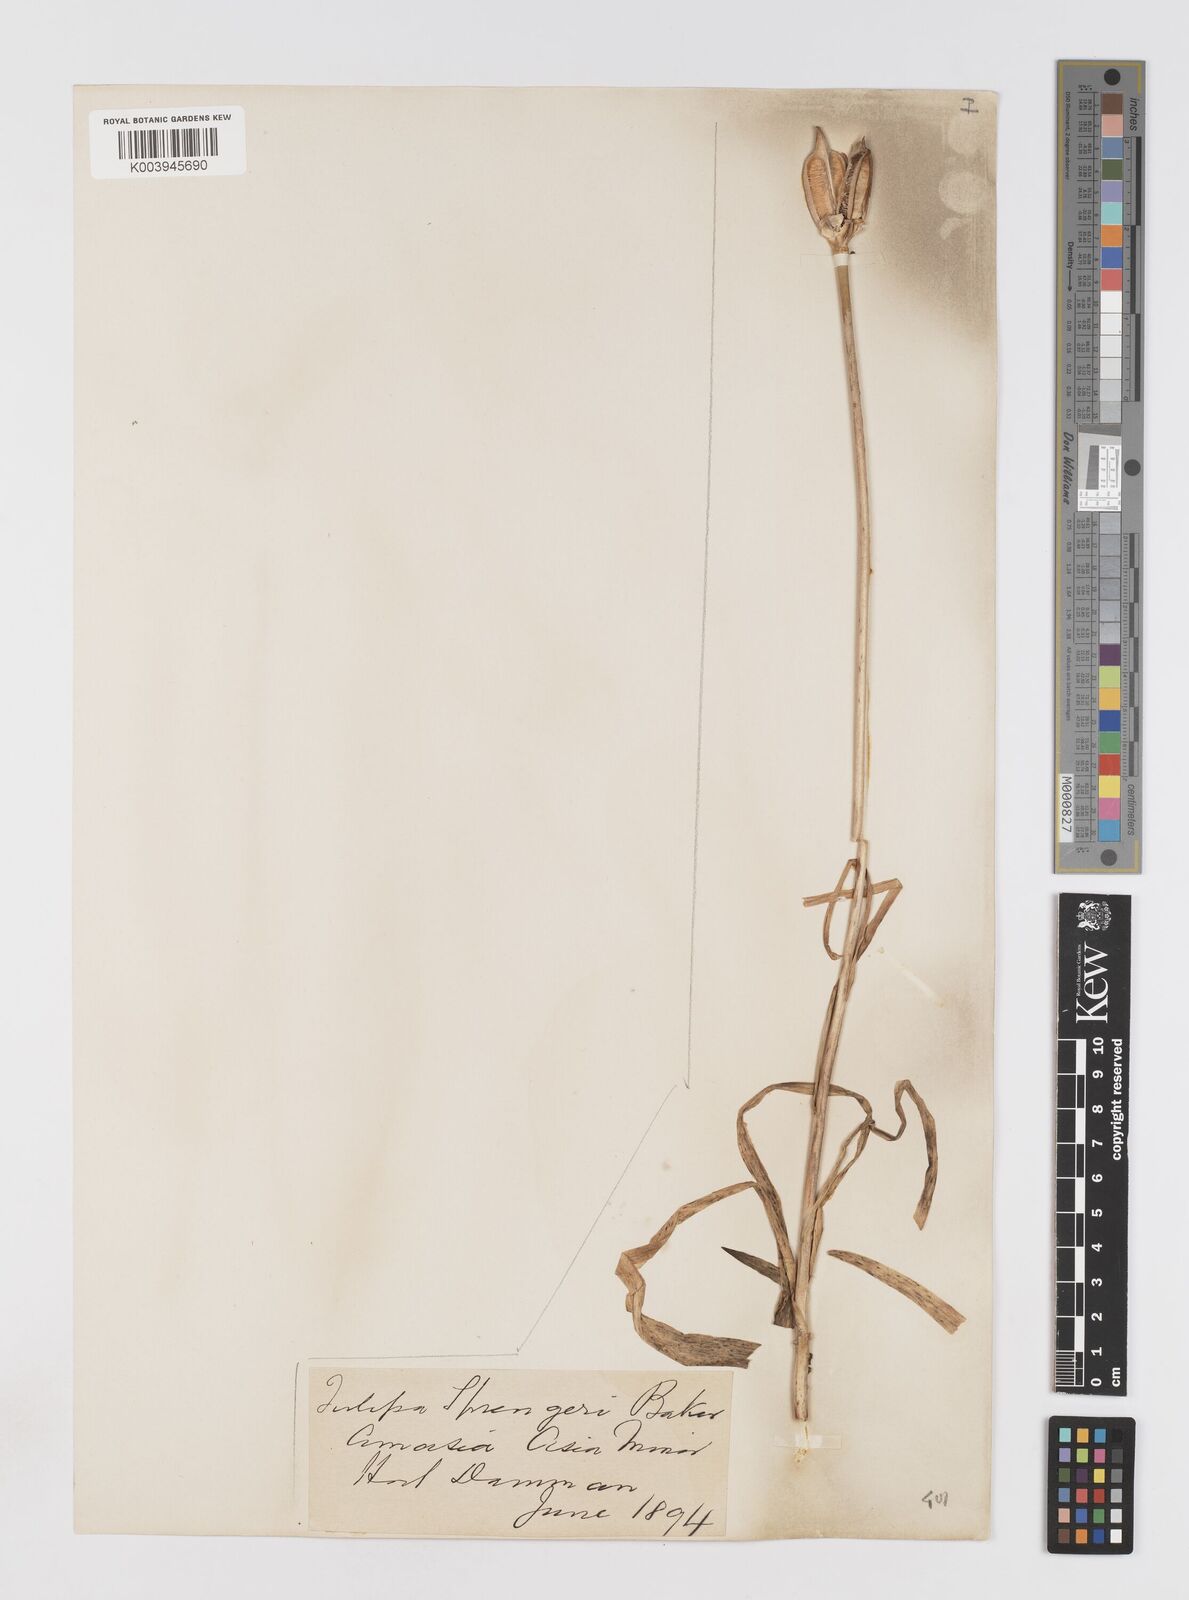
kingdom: Plantae
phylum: Tracheophyta
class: Liliopsida
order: Liliales
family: Liliaceae
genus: Tulipa
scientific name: Tulipa sprengeri
